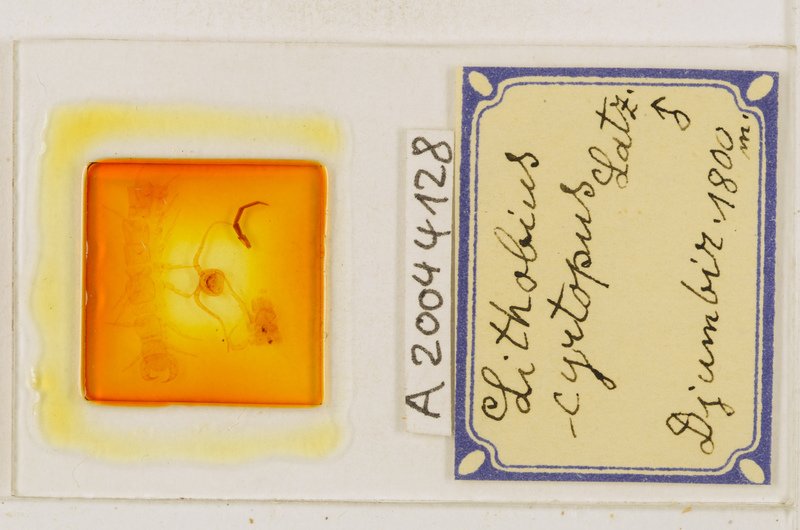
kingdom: Animalia
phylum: Arthropoda
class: Chilopoda
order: Lithobiomorpha
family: Lithobiidae
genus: Lithobius
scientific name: Lithobius cyrtopus
